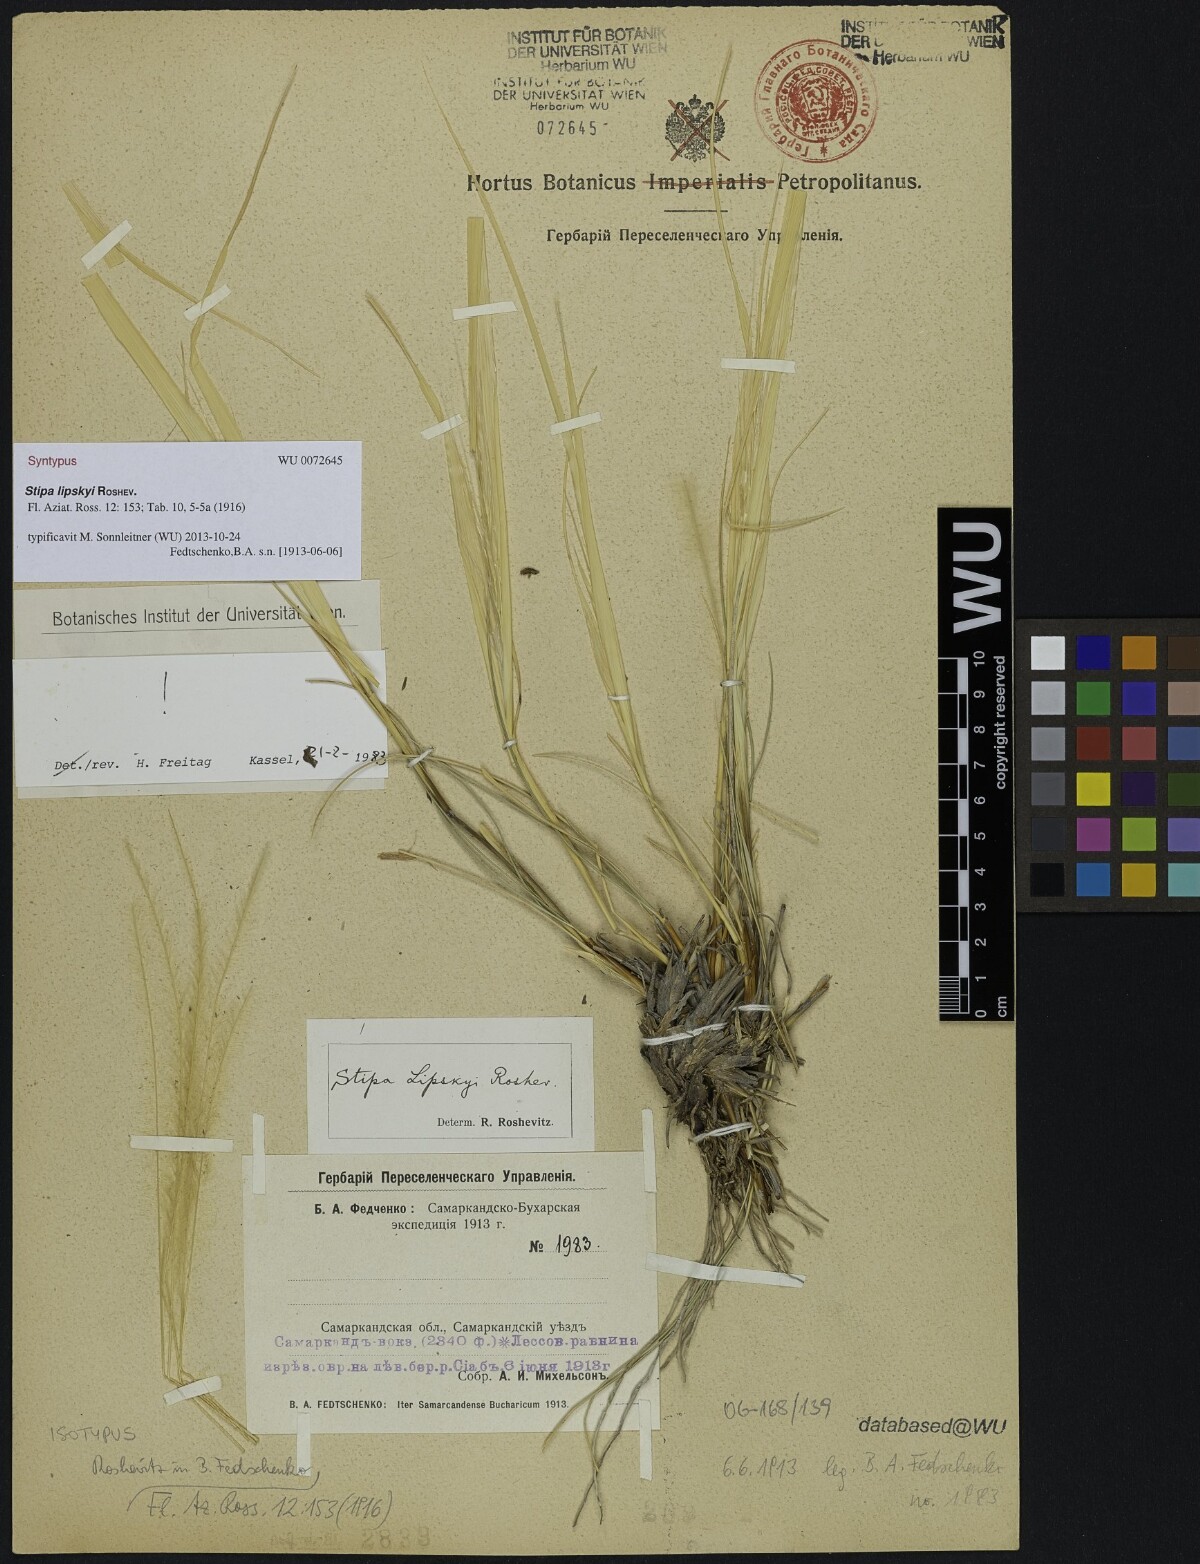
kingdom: Plantae
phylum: Tracheophyta
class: Liliopsida
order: Poales
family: Poaceae
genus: Stipa
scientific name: Stipa lipskyi
